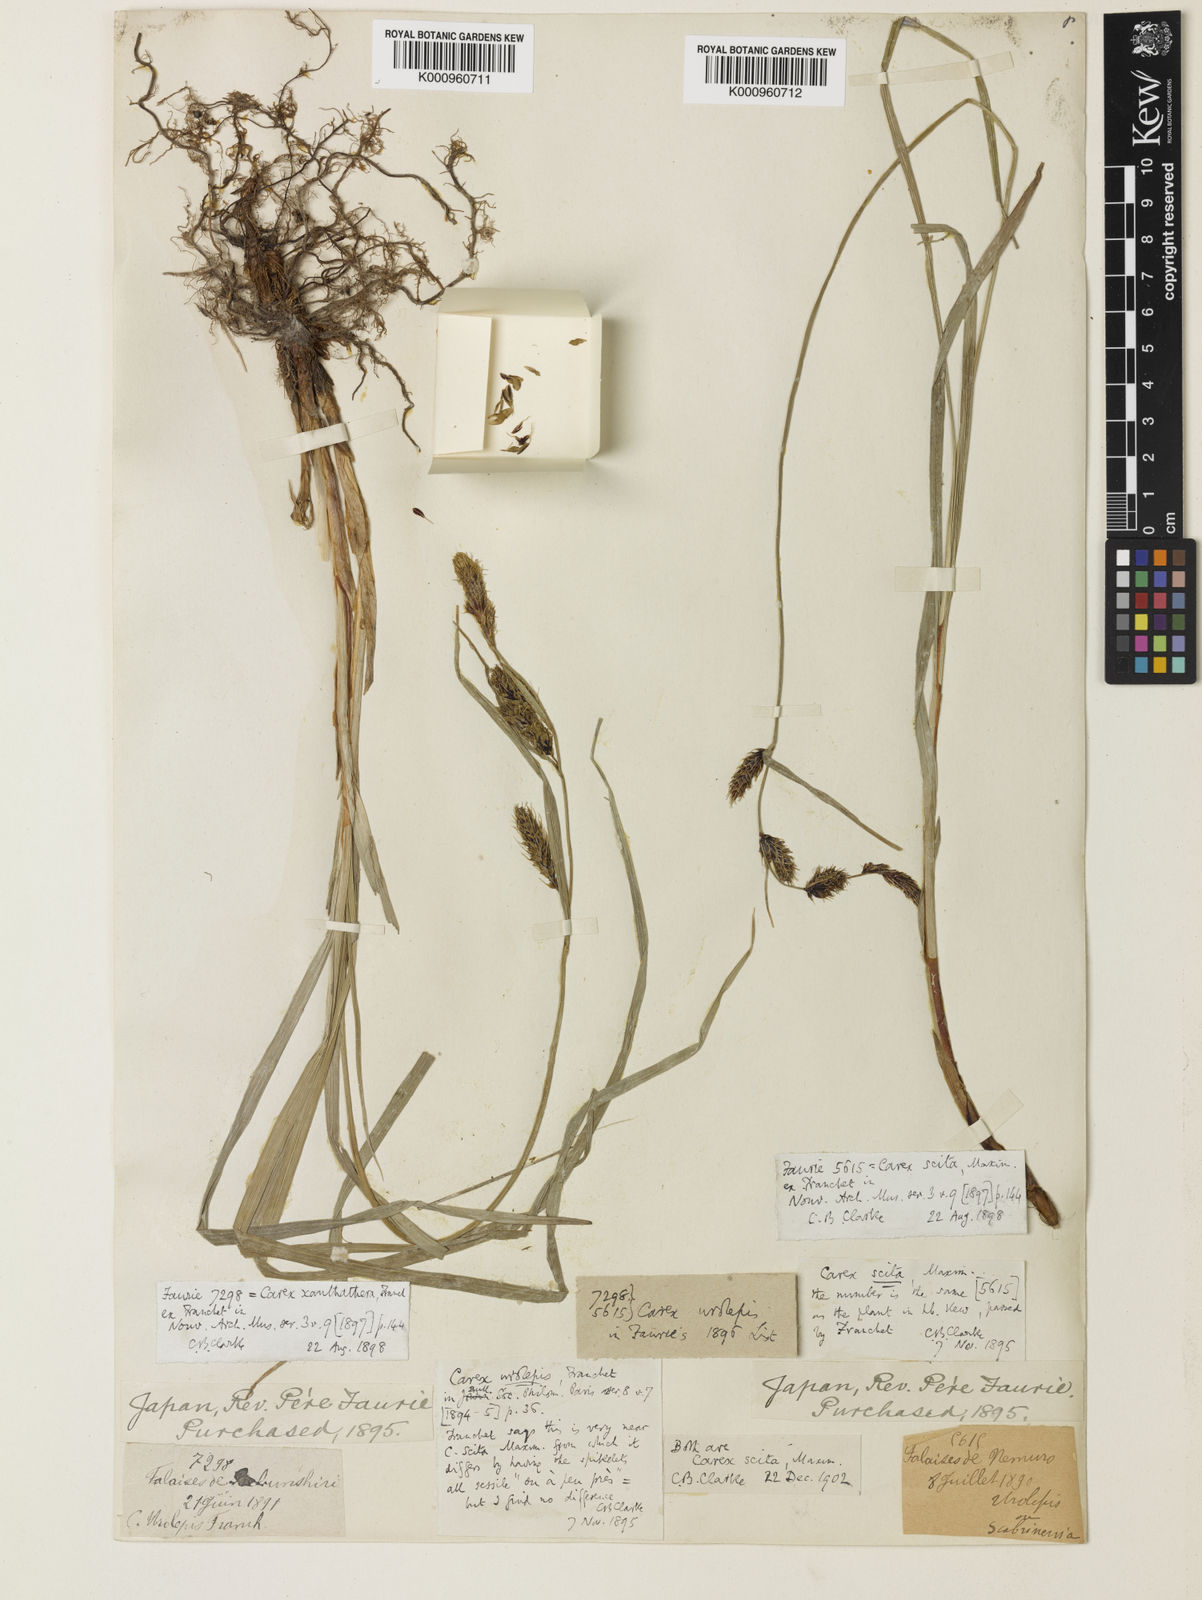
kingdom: Plantae
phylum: Tracheophyta
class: Liliopsida
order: Poales
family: Cyperaceae
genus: Carex
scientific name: Carex scita
